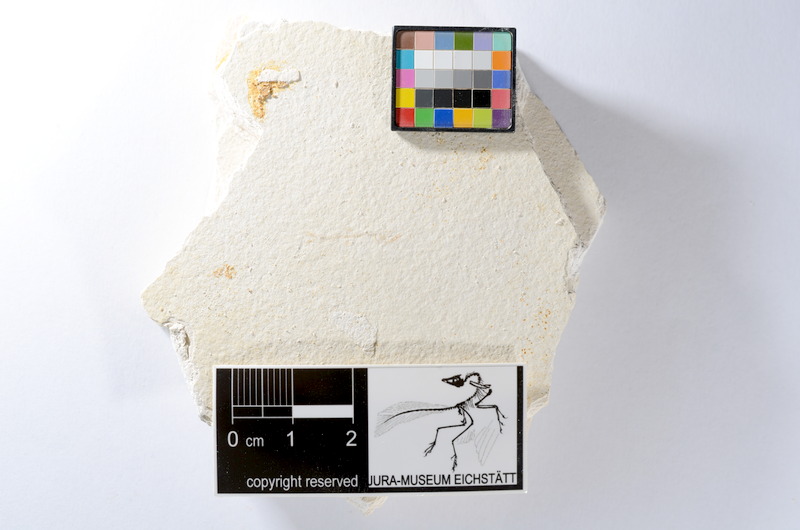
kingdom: Animalia
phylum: Chordata
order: Salmoniformes
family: Orthogonikleithridae
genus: Orthogonikleithrus
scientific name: Orthogonikleithrus hoelli
